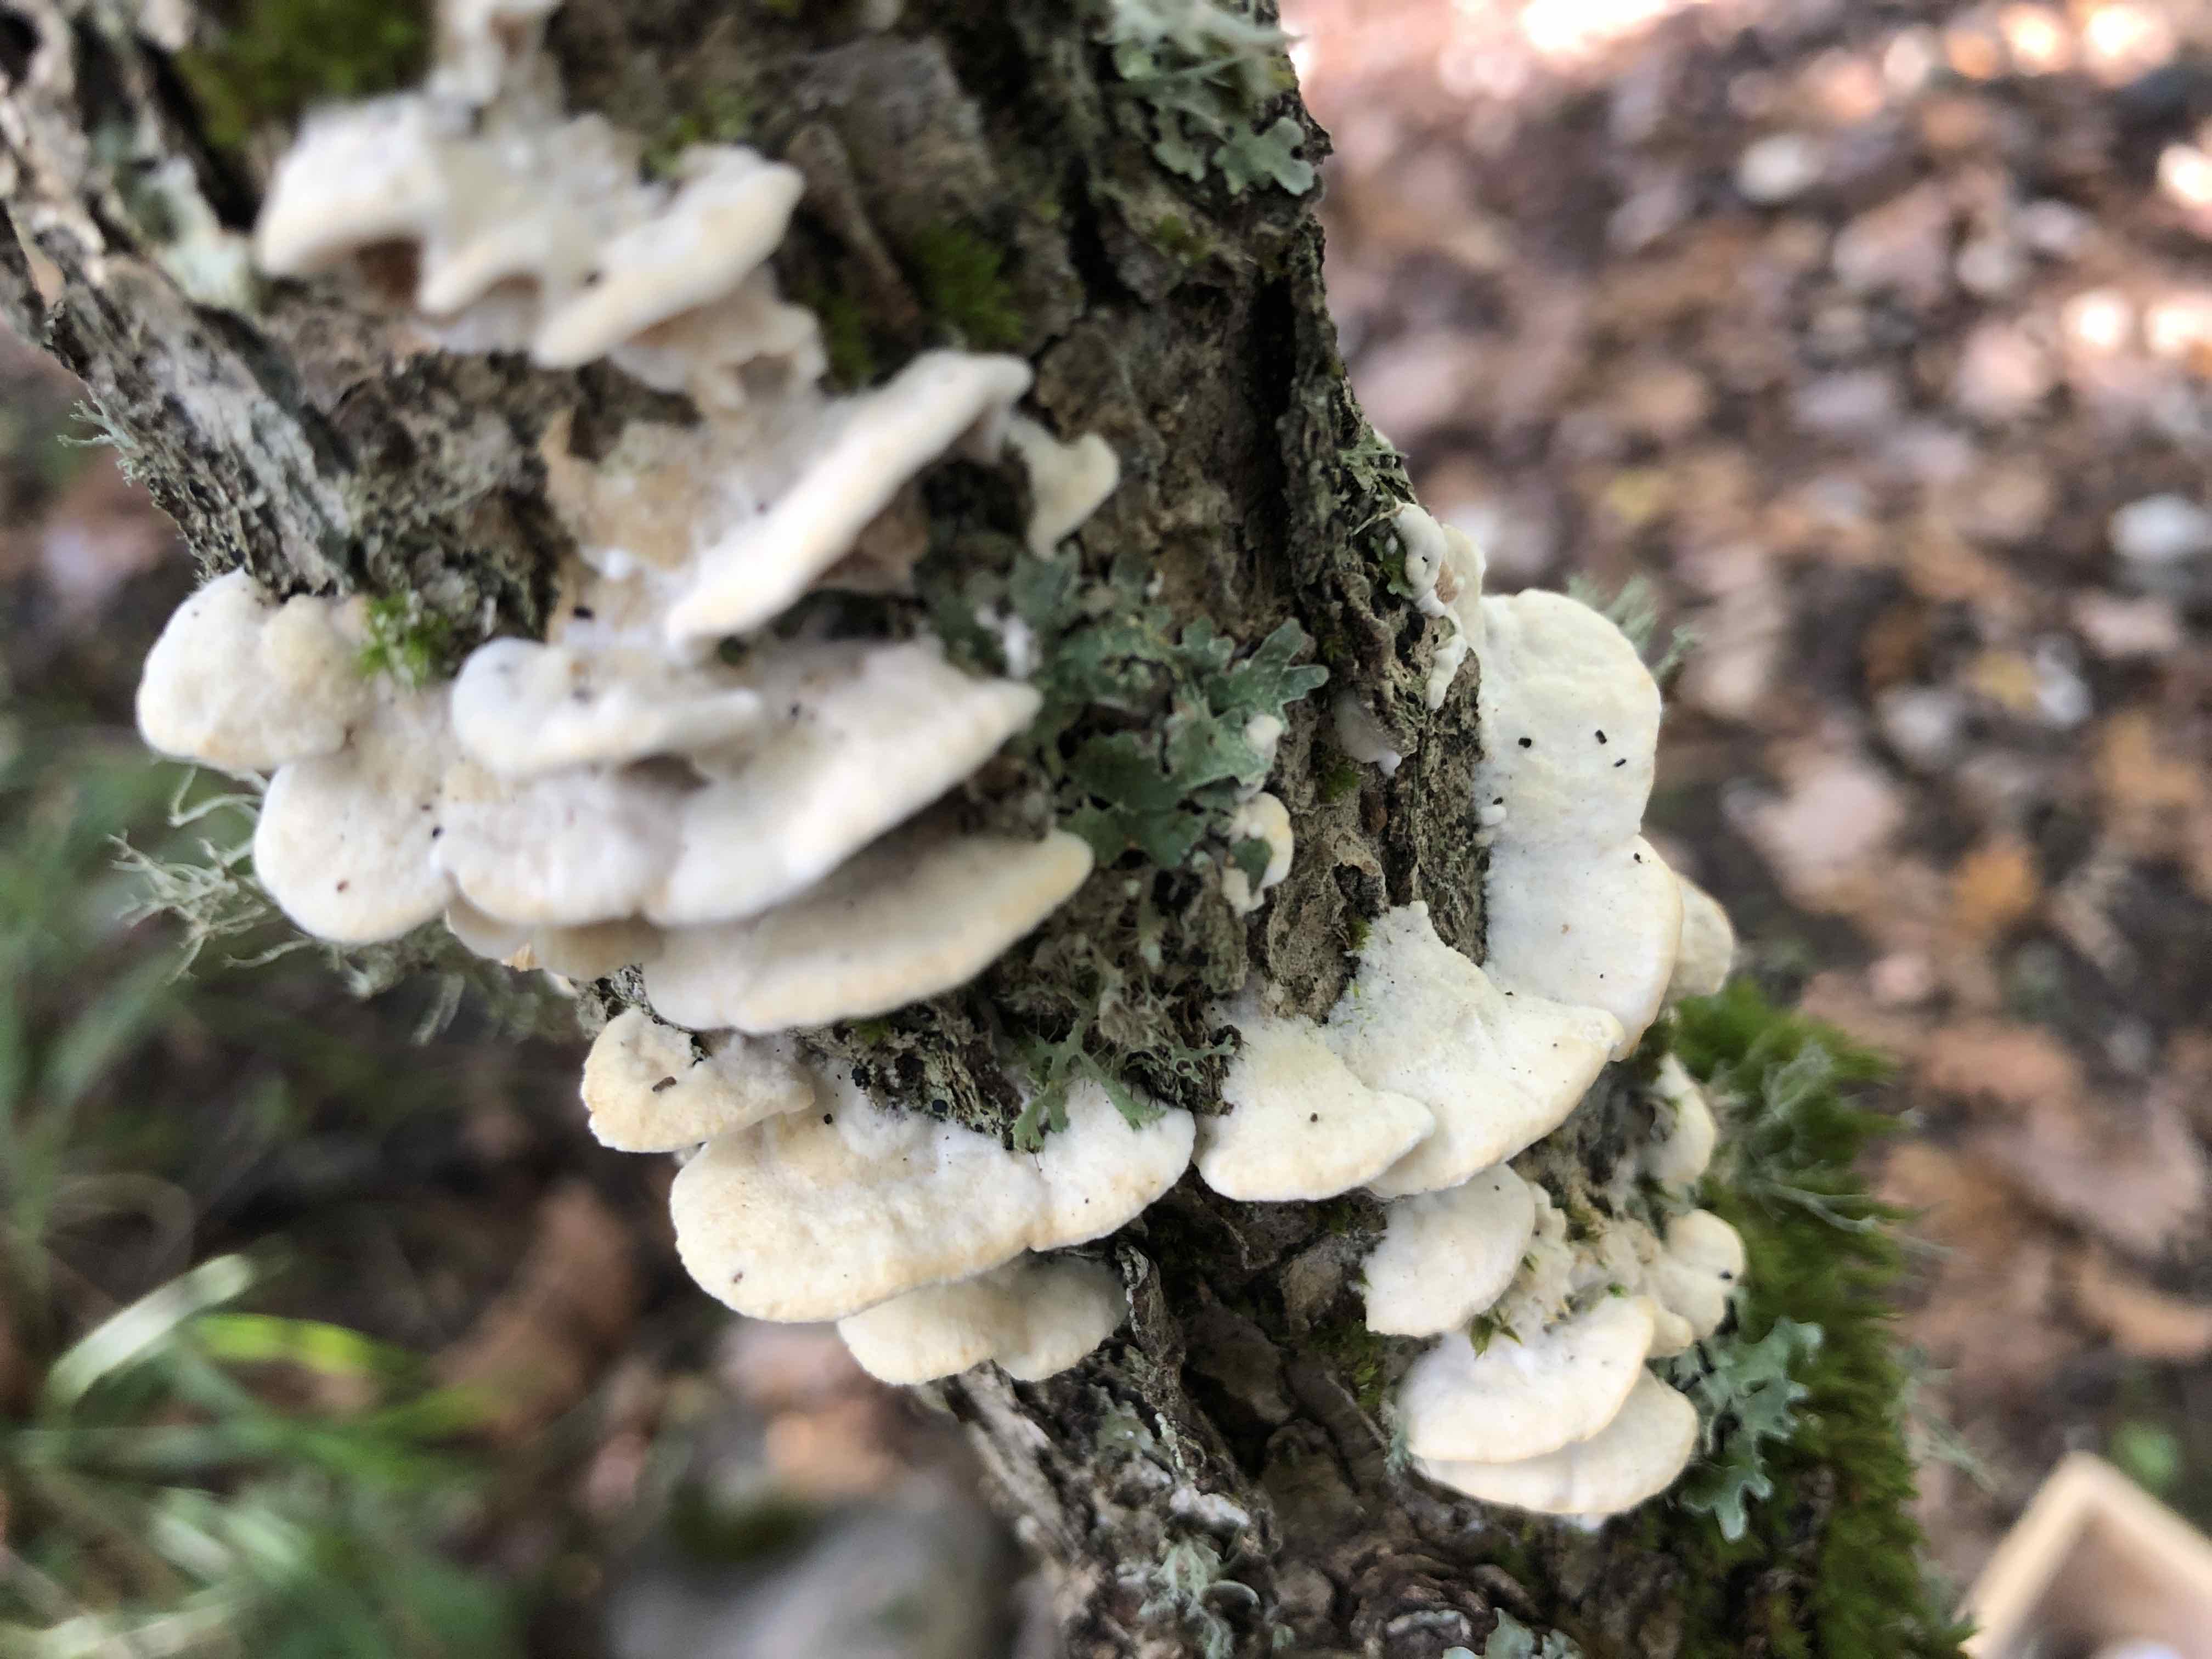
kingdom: Fungi
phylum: Basidiomycota
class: Agaricomycetes
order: Polyporales
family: Irpicaceae
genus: Vitreoporus
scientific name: Vitreoporus dichrous
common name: tofarvet foldporesvamp
